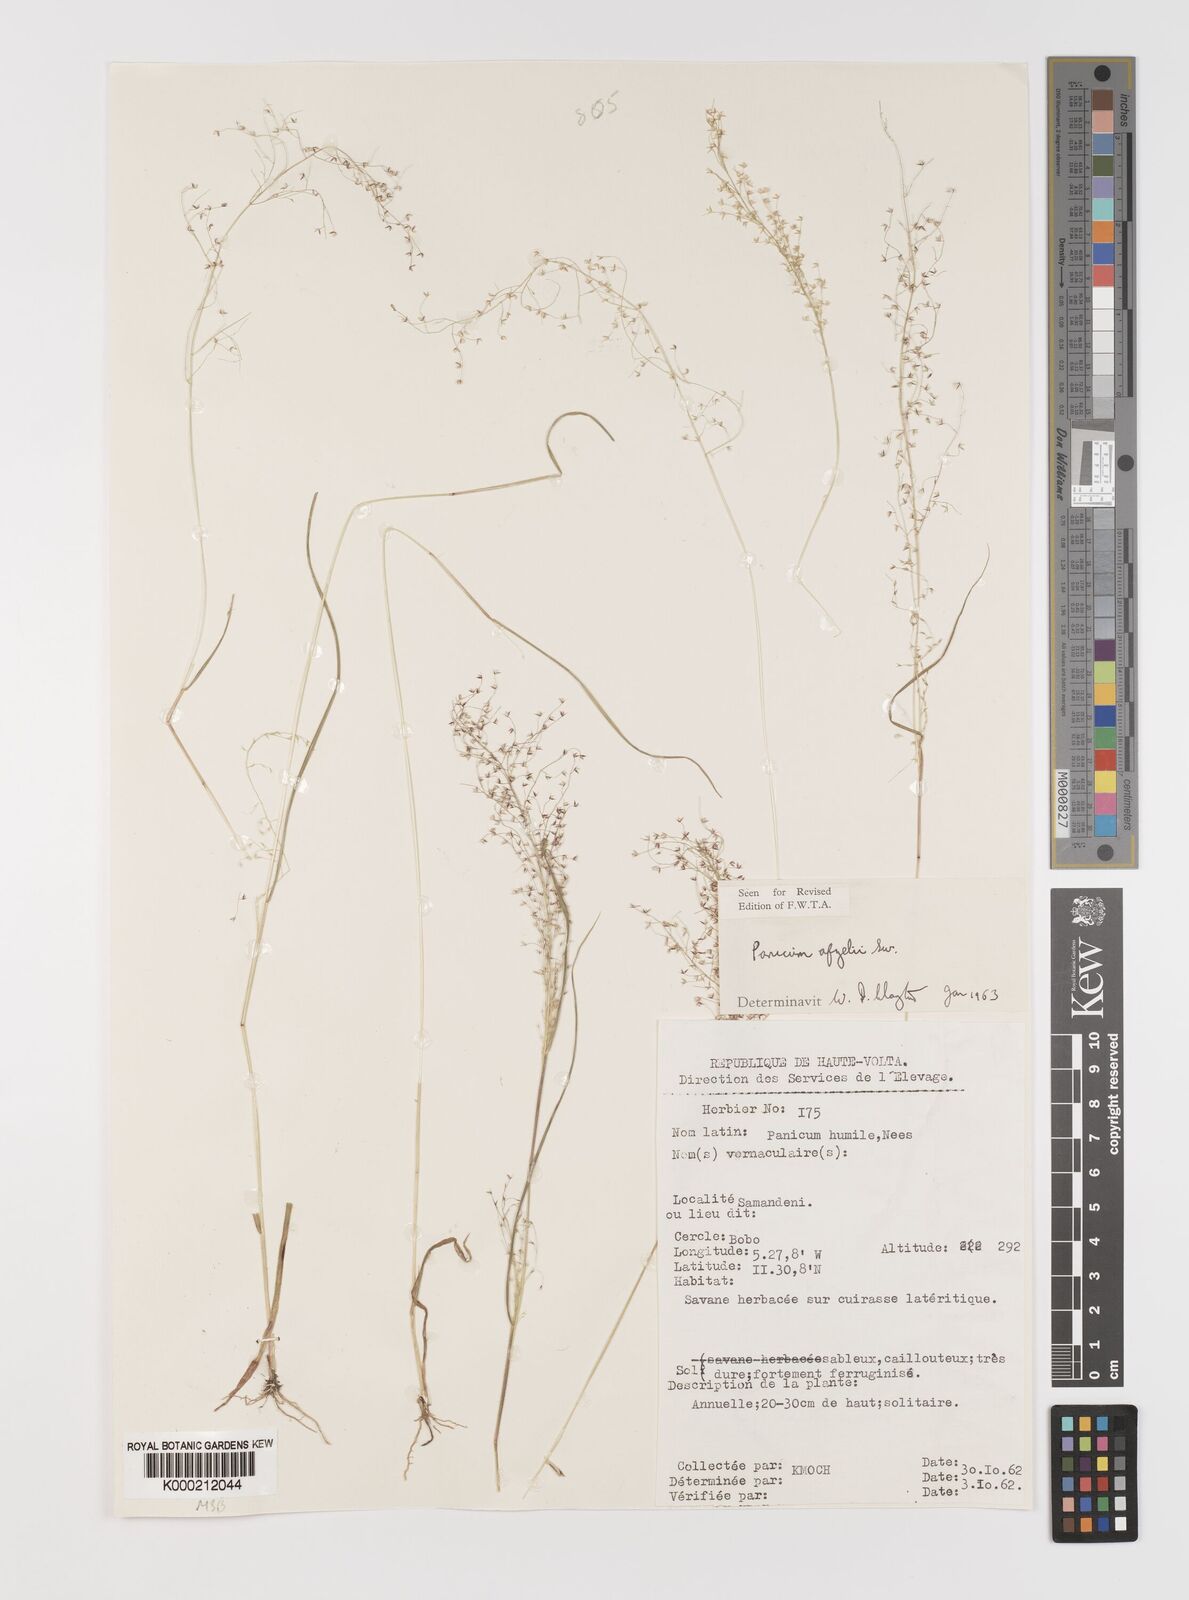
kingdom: Plantae
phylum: Tracheophyta
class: Liliopsida
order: Poales
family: Poaceae
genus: Panicum
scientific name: Panicum afzelii
